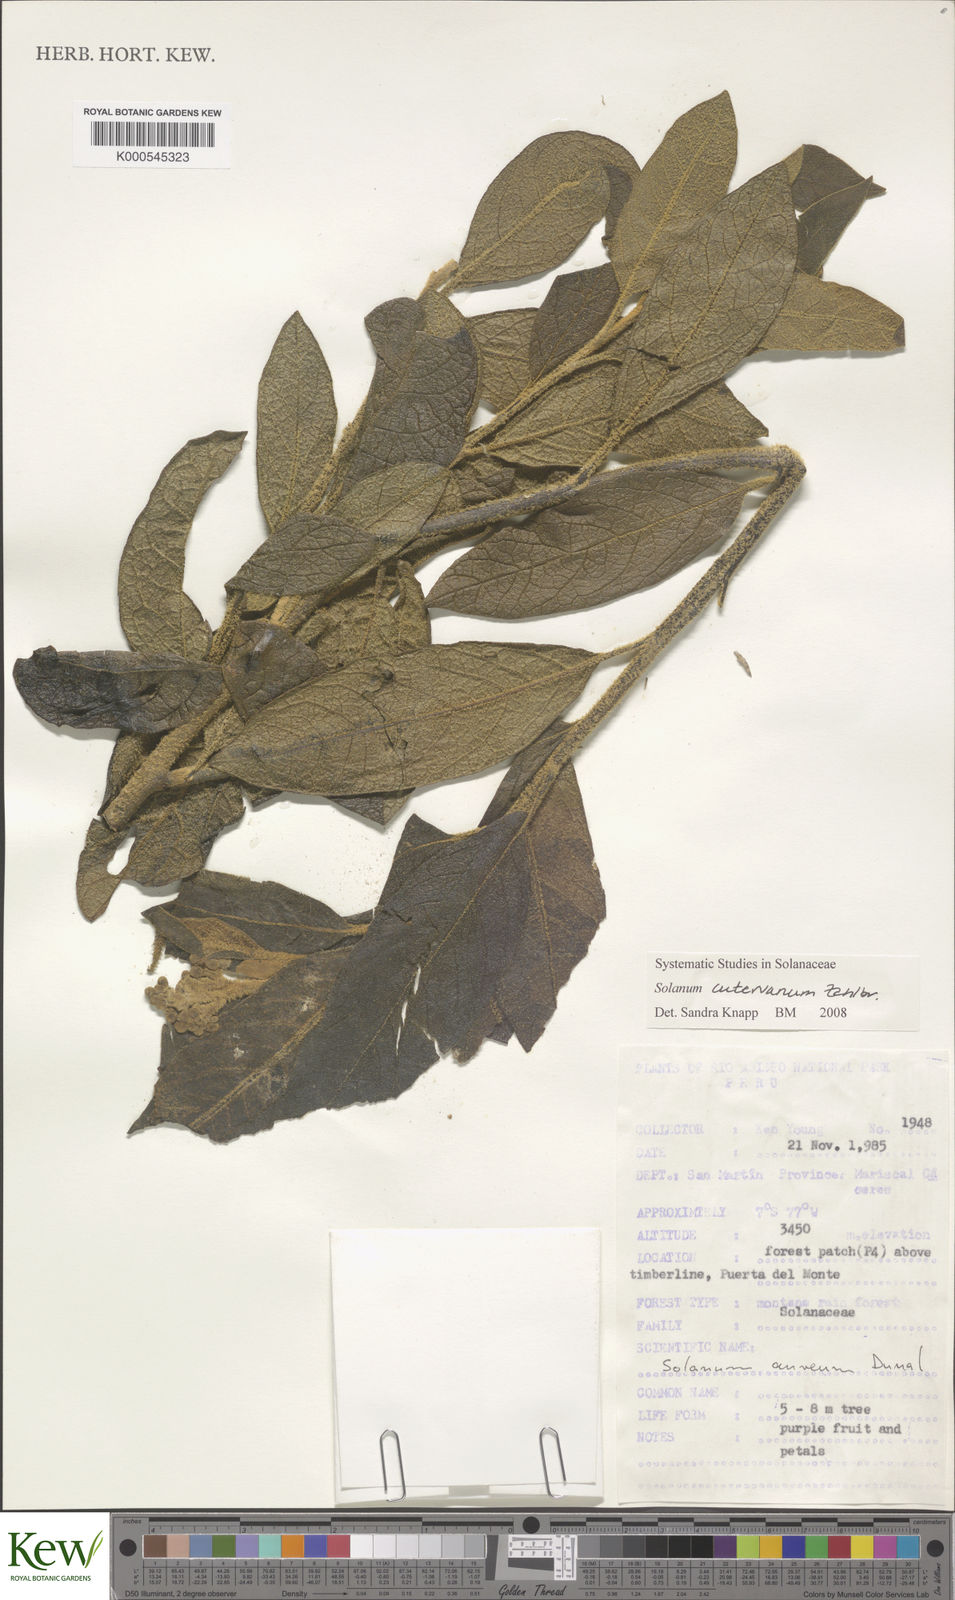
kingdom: Plantae
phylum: Tracheophyta
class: Magnoliopsida
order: Solanales
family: Solanaceae
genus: Solanum
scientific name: Solanum cutervanum
